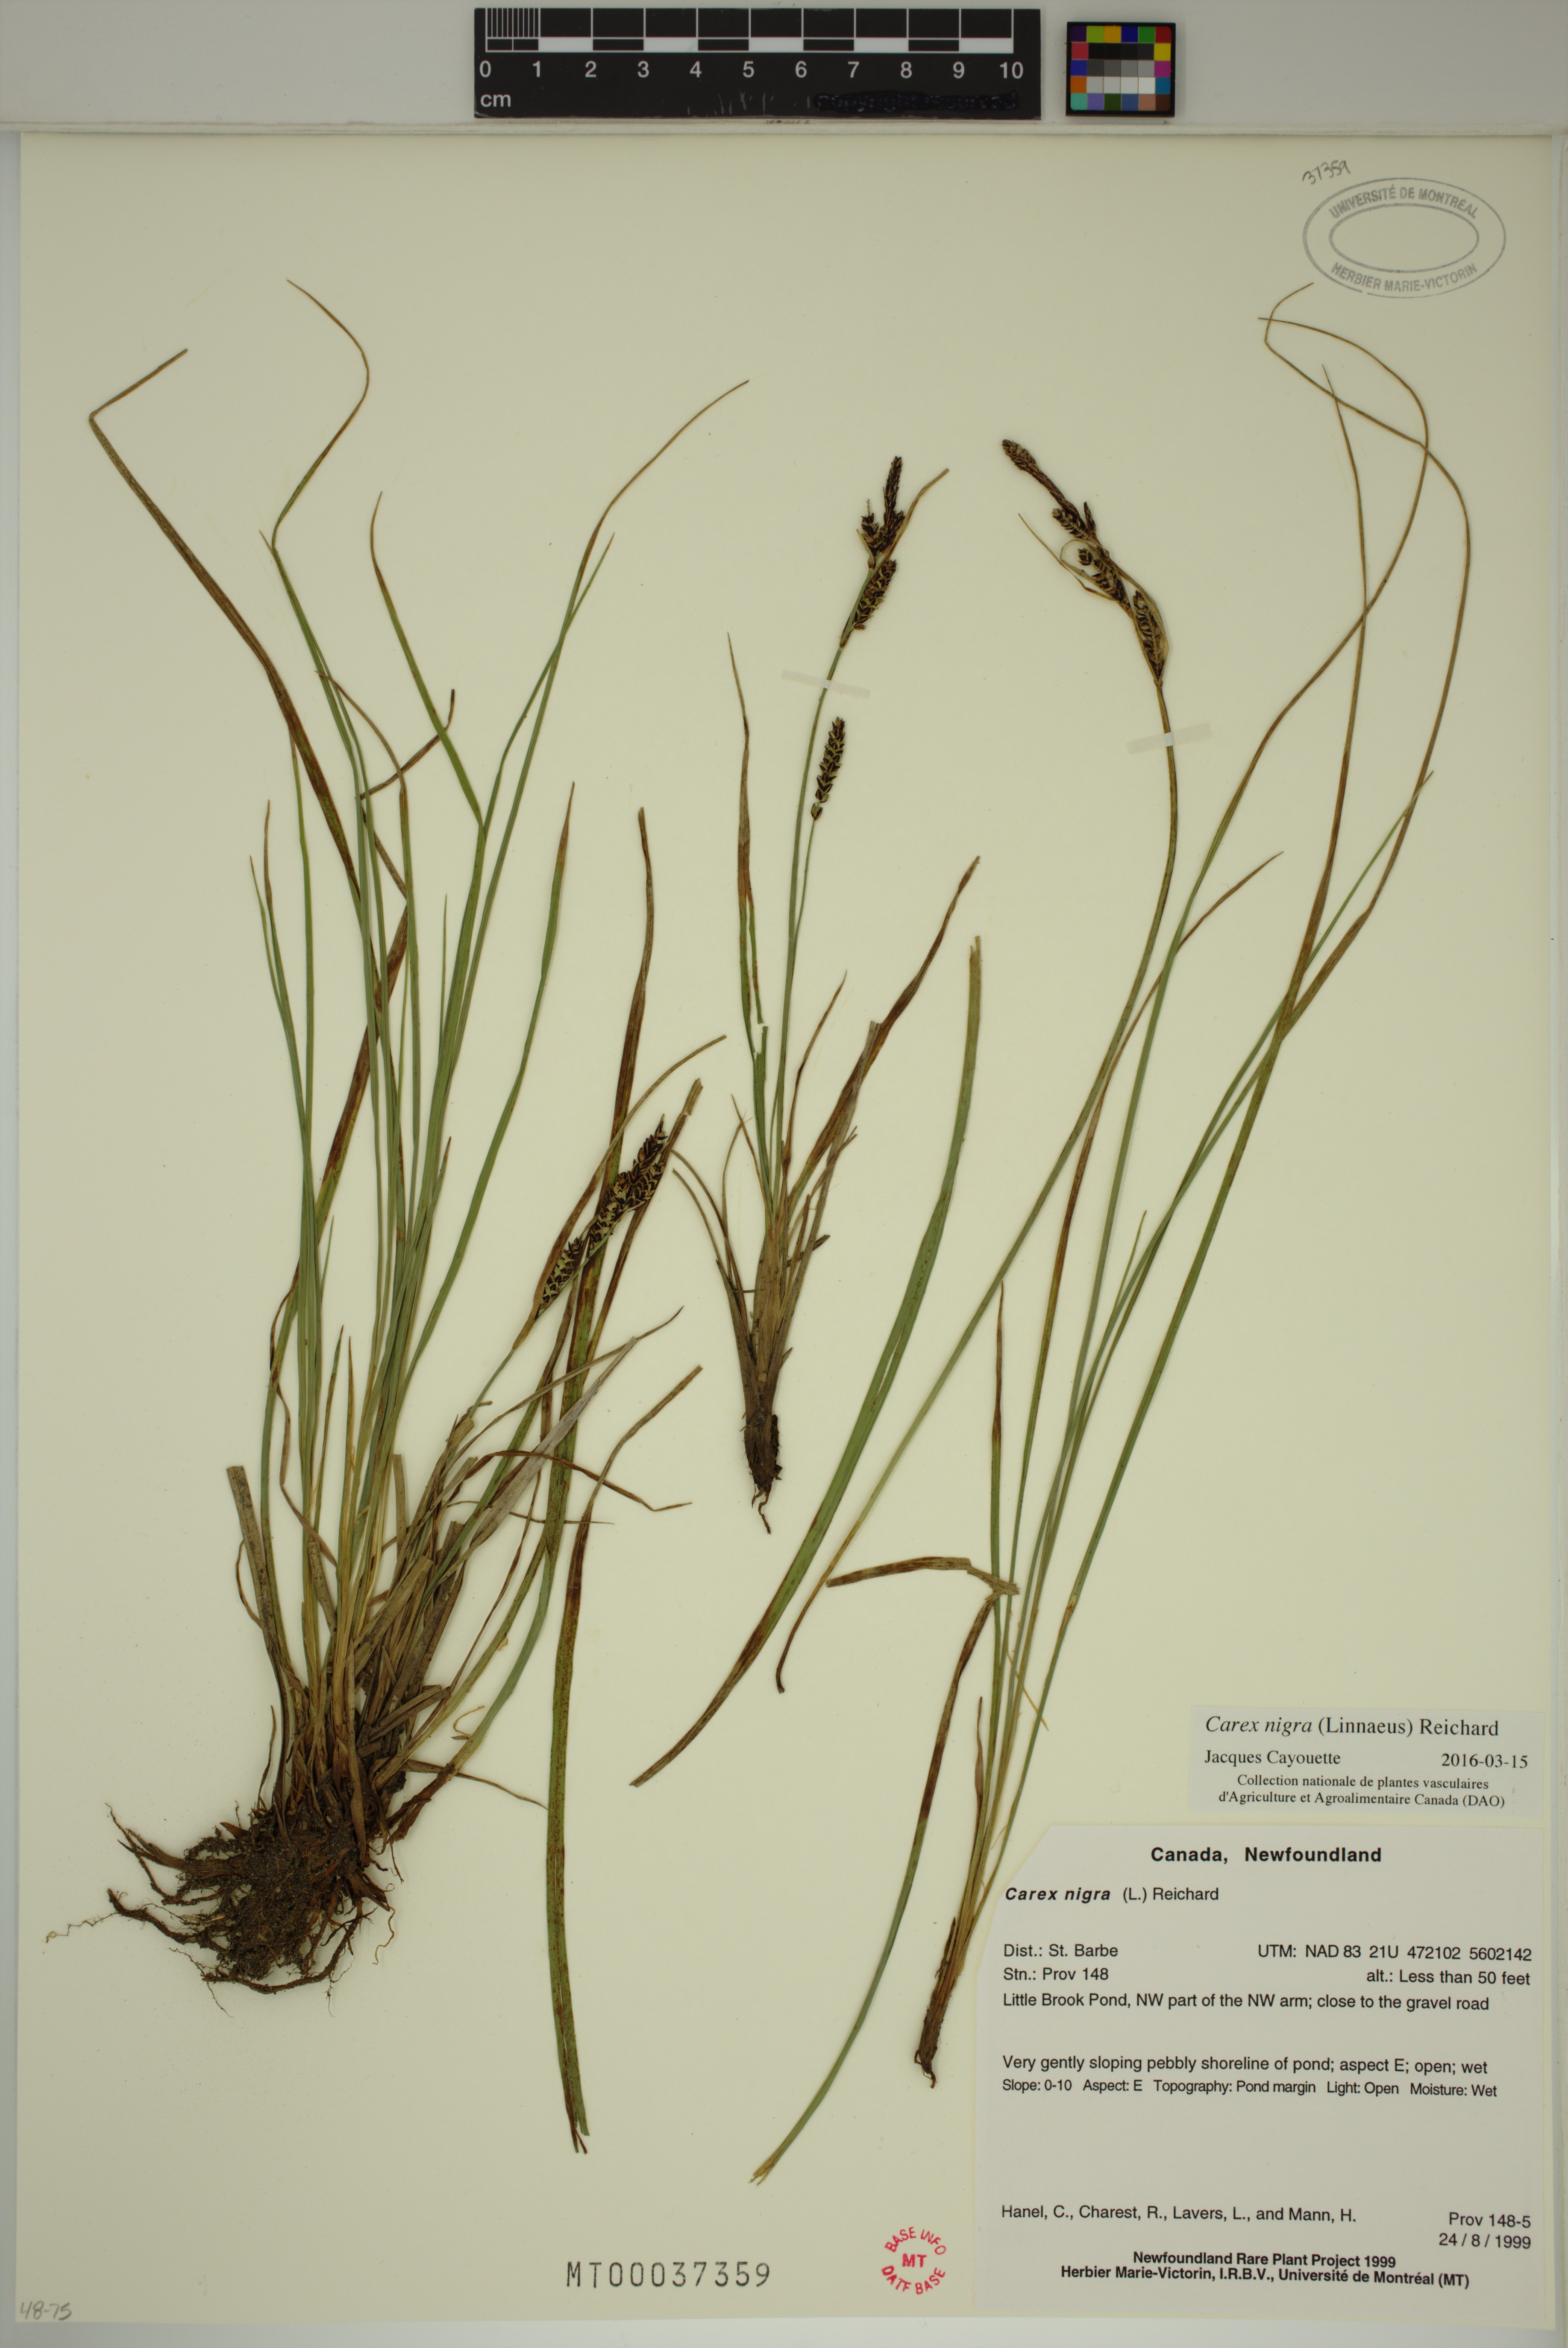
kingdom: Plantae
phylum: Tracheophyta
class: Liliopsida
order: Poales
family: Cyperaceae
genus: Carex
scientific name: Carex nigra
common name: Common sedge
